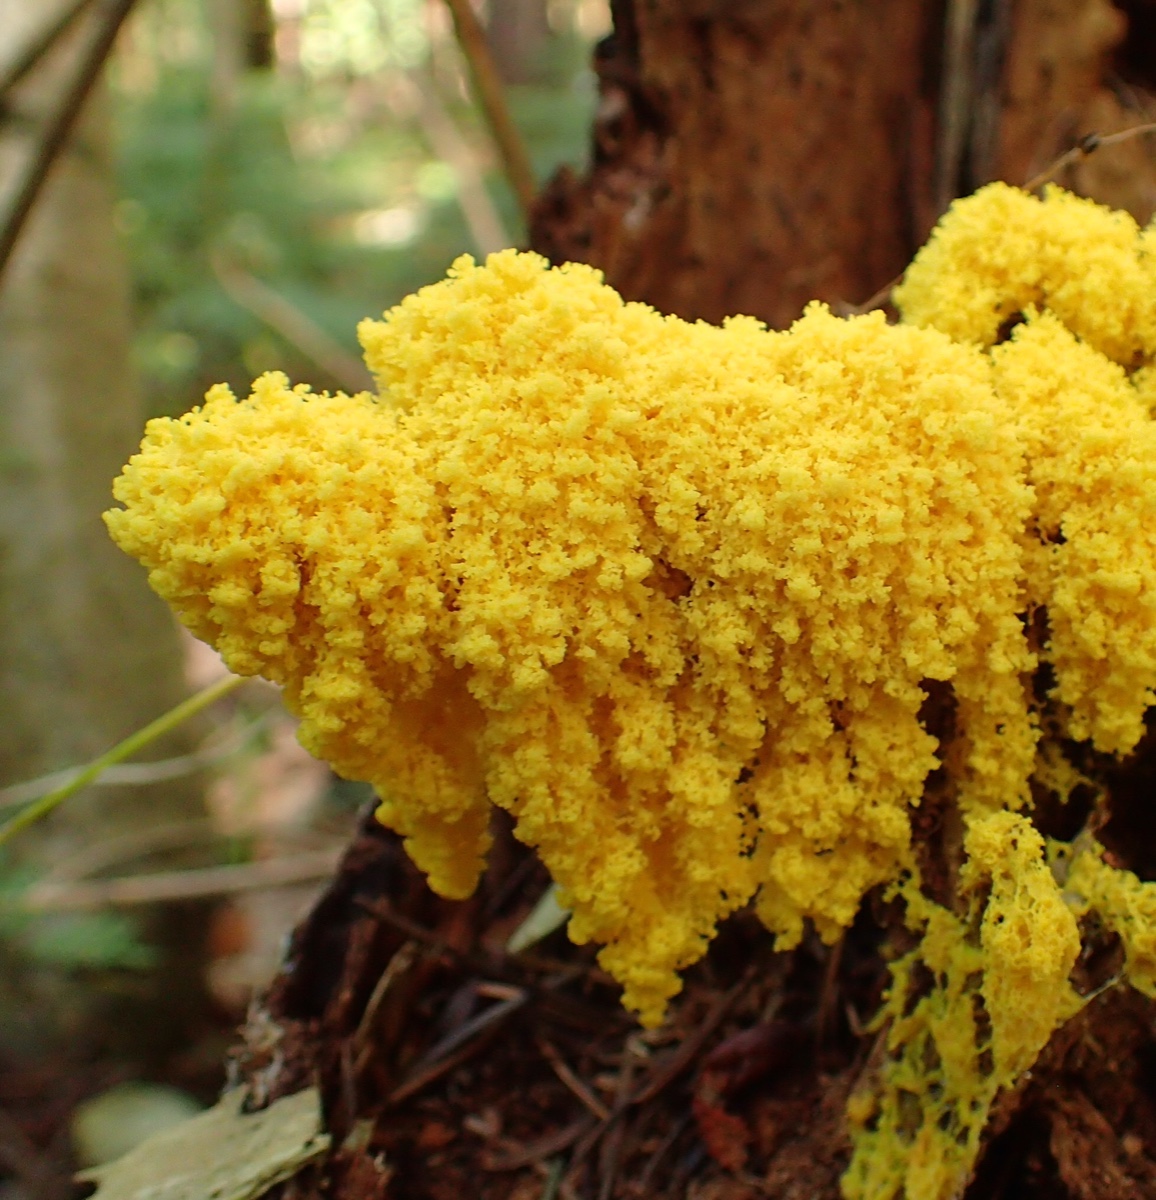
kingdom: Protozoa
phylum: Mycetozoa
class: Myxomycetes
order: Physarales
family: Physaraceae
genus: Fuligo
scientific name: Fuligo septica
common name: gul troldsmør
